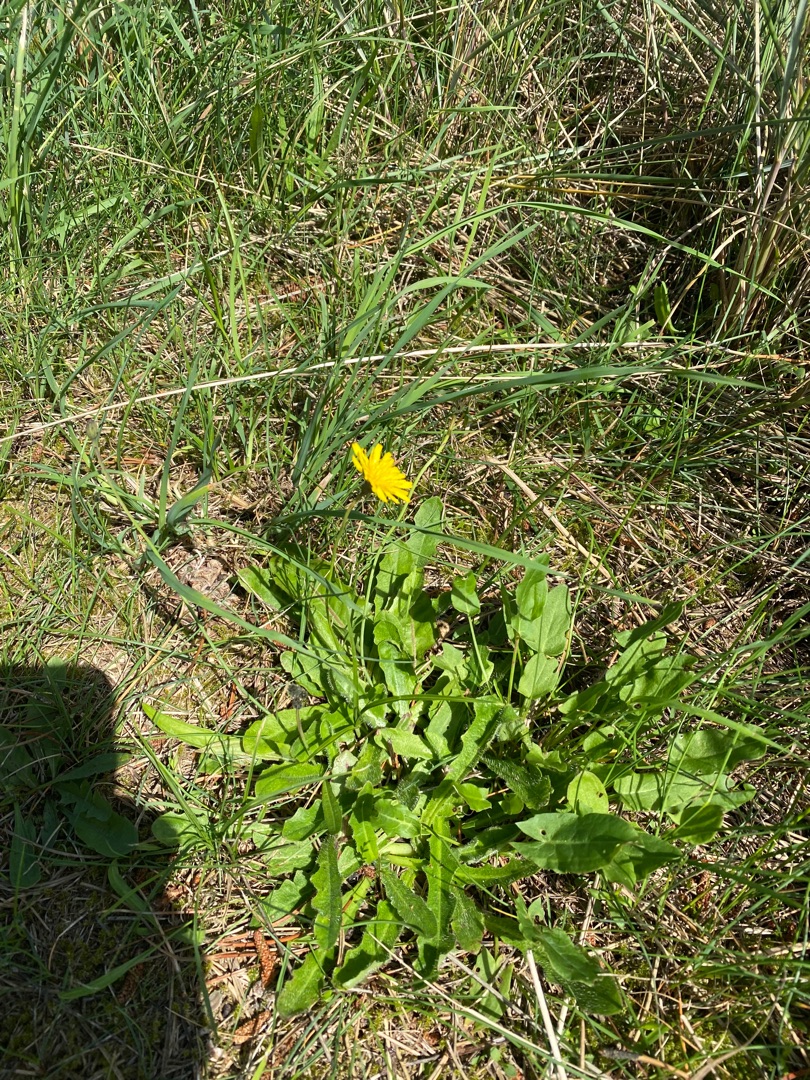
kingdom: Plantae
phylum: Tracheophyta
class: Magnoliopsida
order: Asterales
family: Asteraceae
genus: Hypochaeris
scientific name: Hypochaeris radicata
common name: Almindelig kongepen
